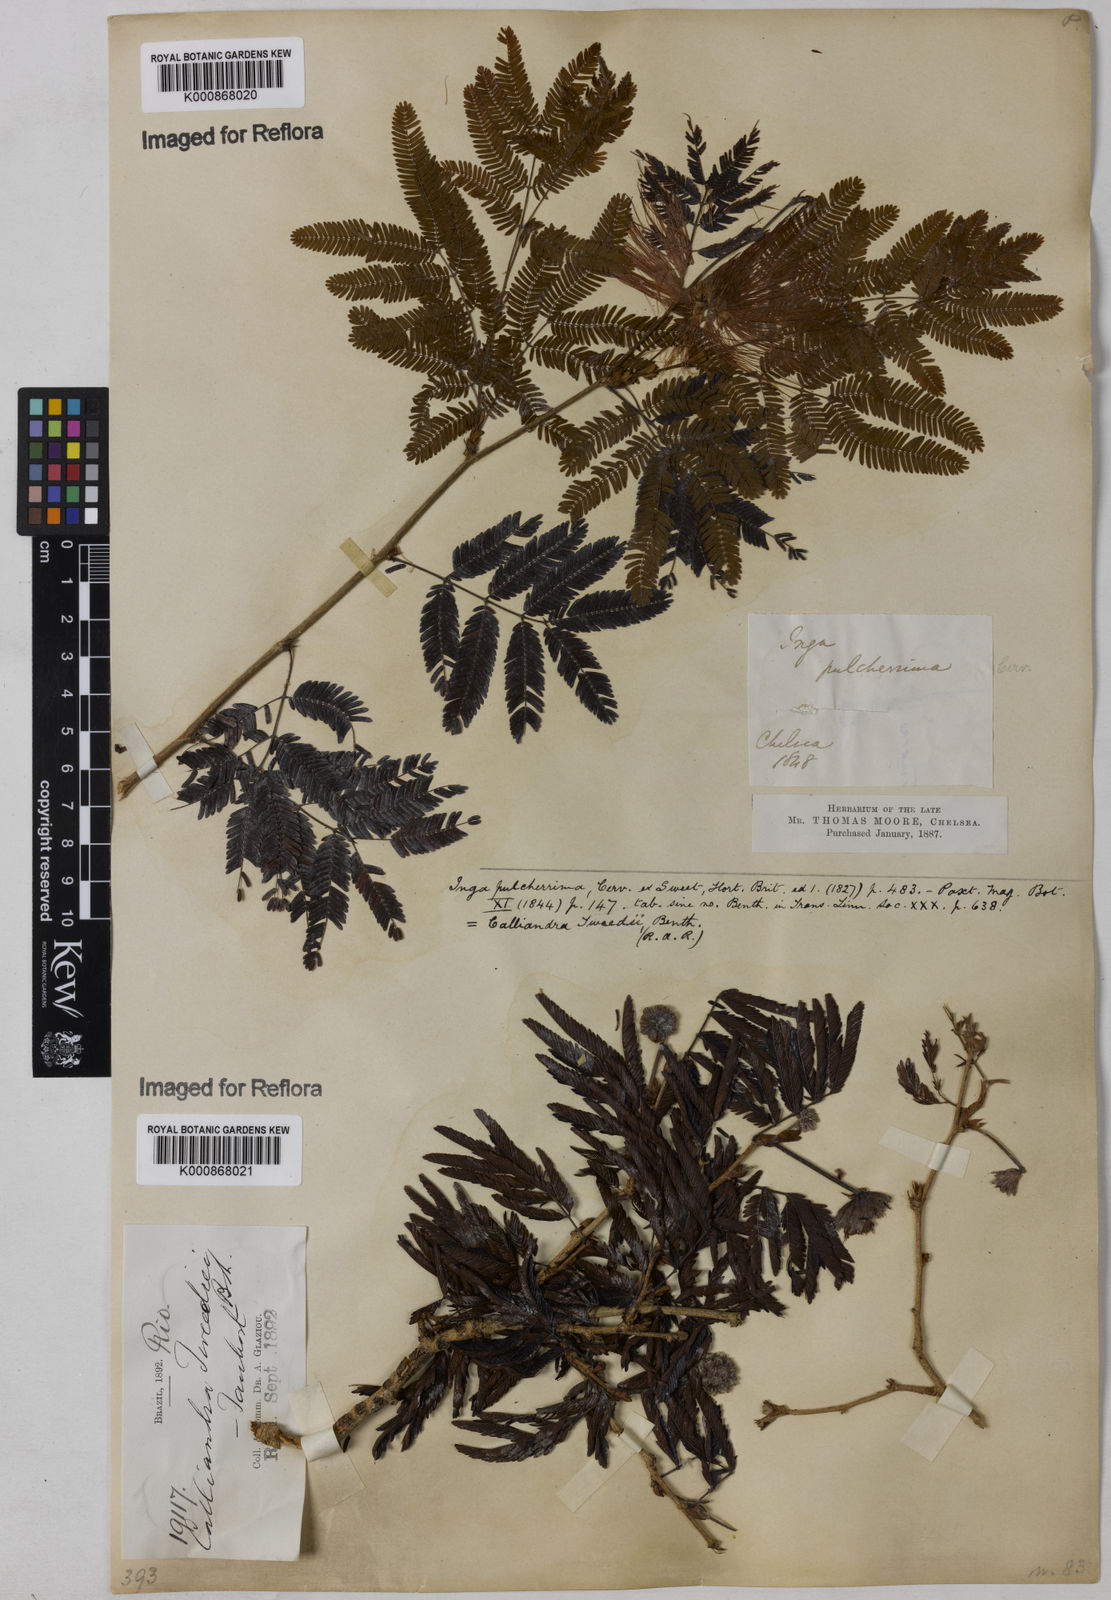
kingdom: Plantae
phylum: Tracheophyta
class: Magnoliopsida
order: Fabales
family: Fabaceae
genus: Calliandra
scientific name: Calliandra tweediei
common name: Mexican flamebush
